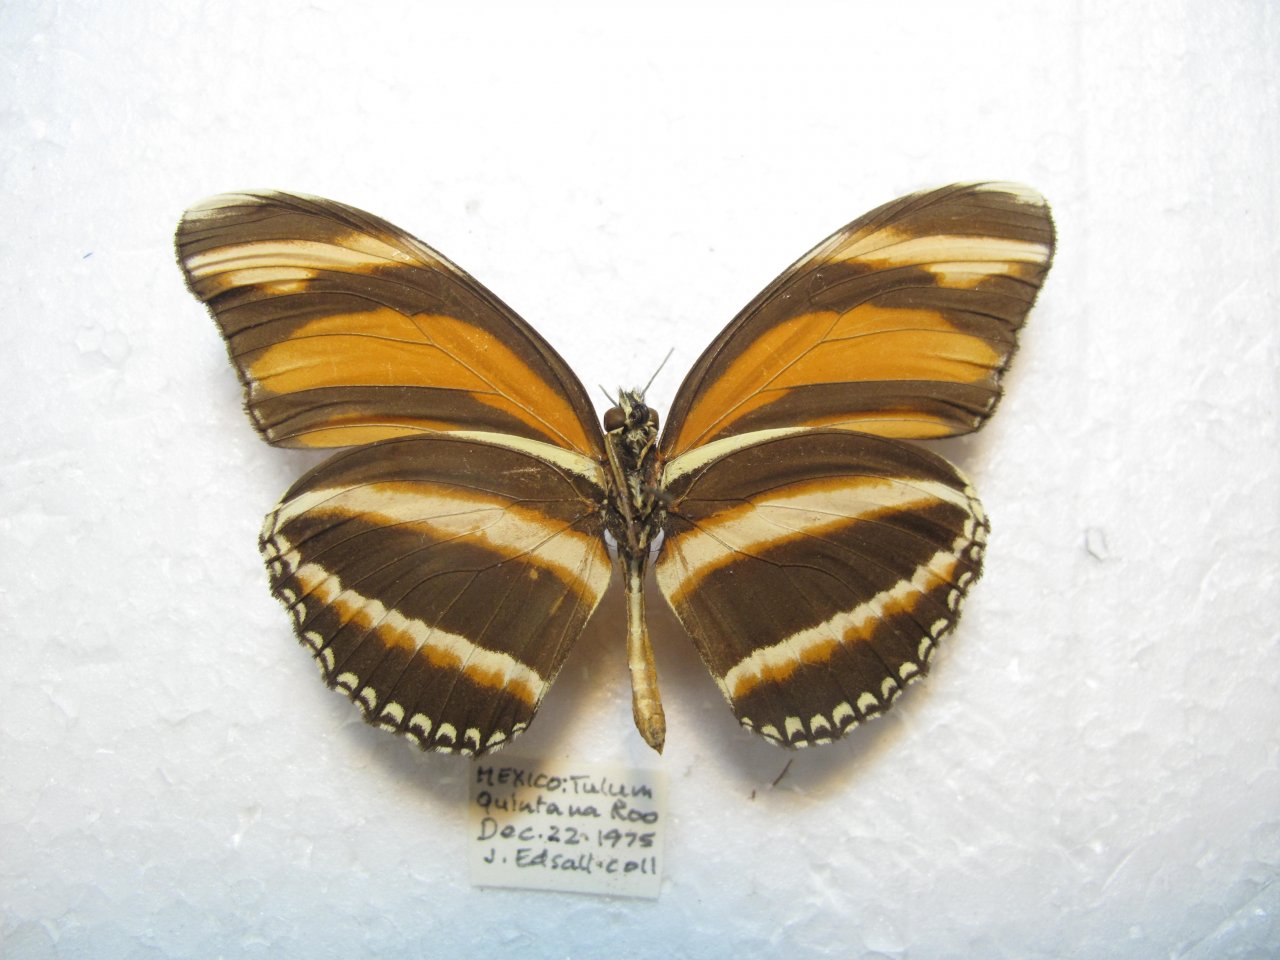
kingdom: Animalia
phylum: Arthropoda
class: Insecta
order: Lepidoptera
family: Nymphalidae
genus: Dryadula
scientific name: Dryadula phaetusa
